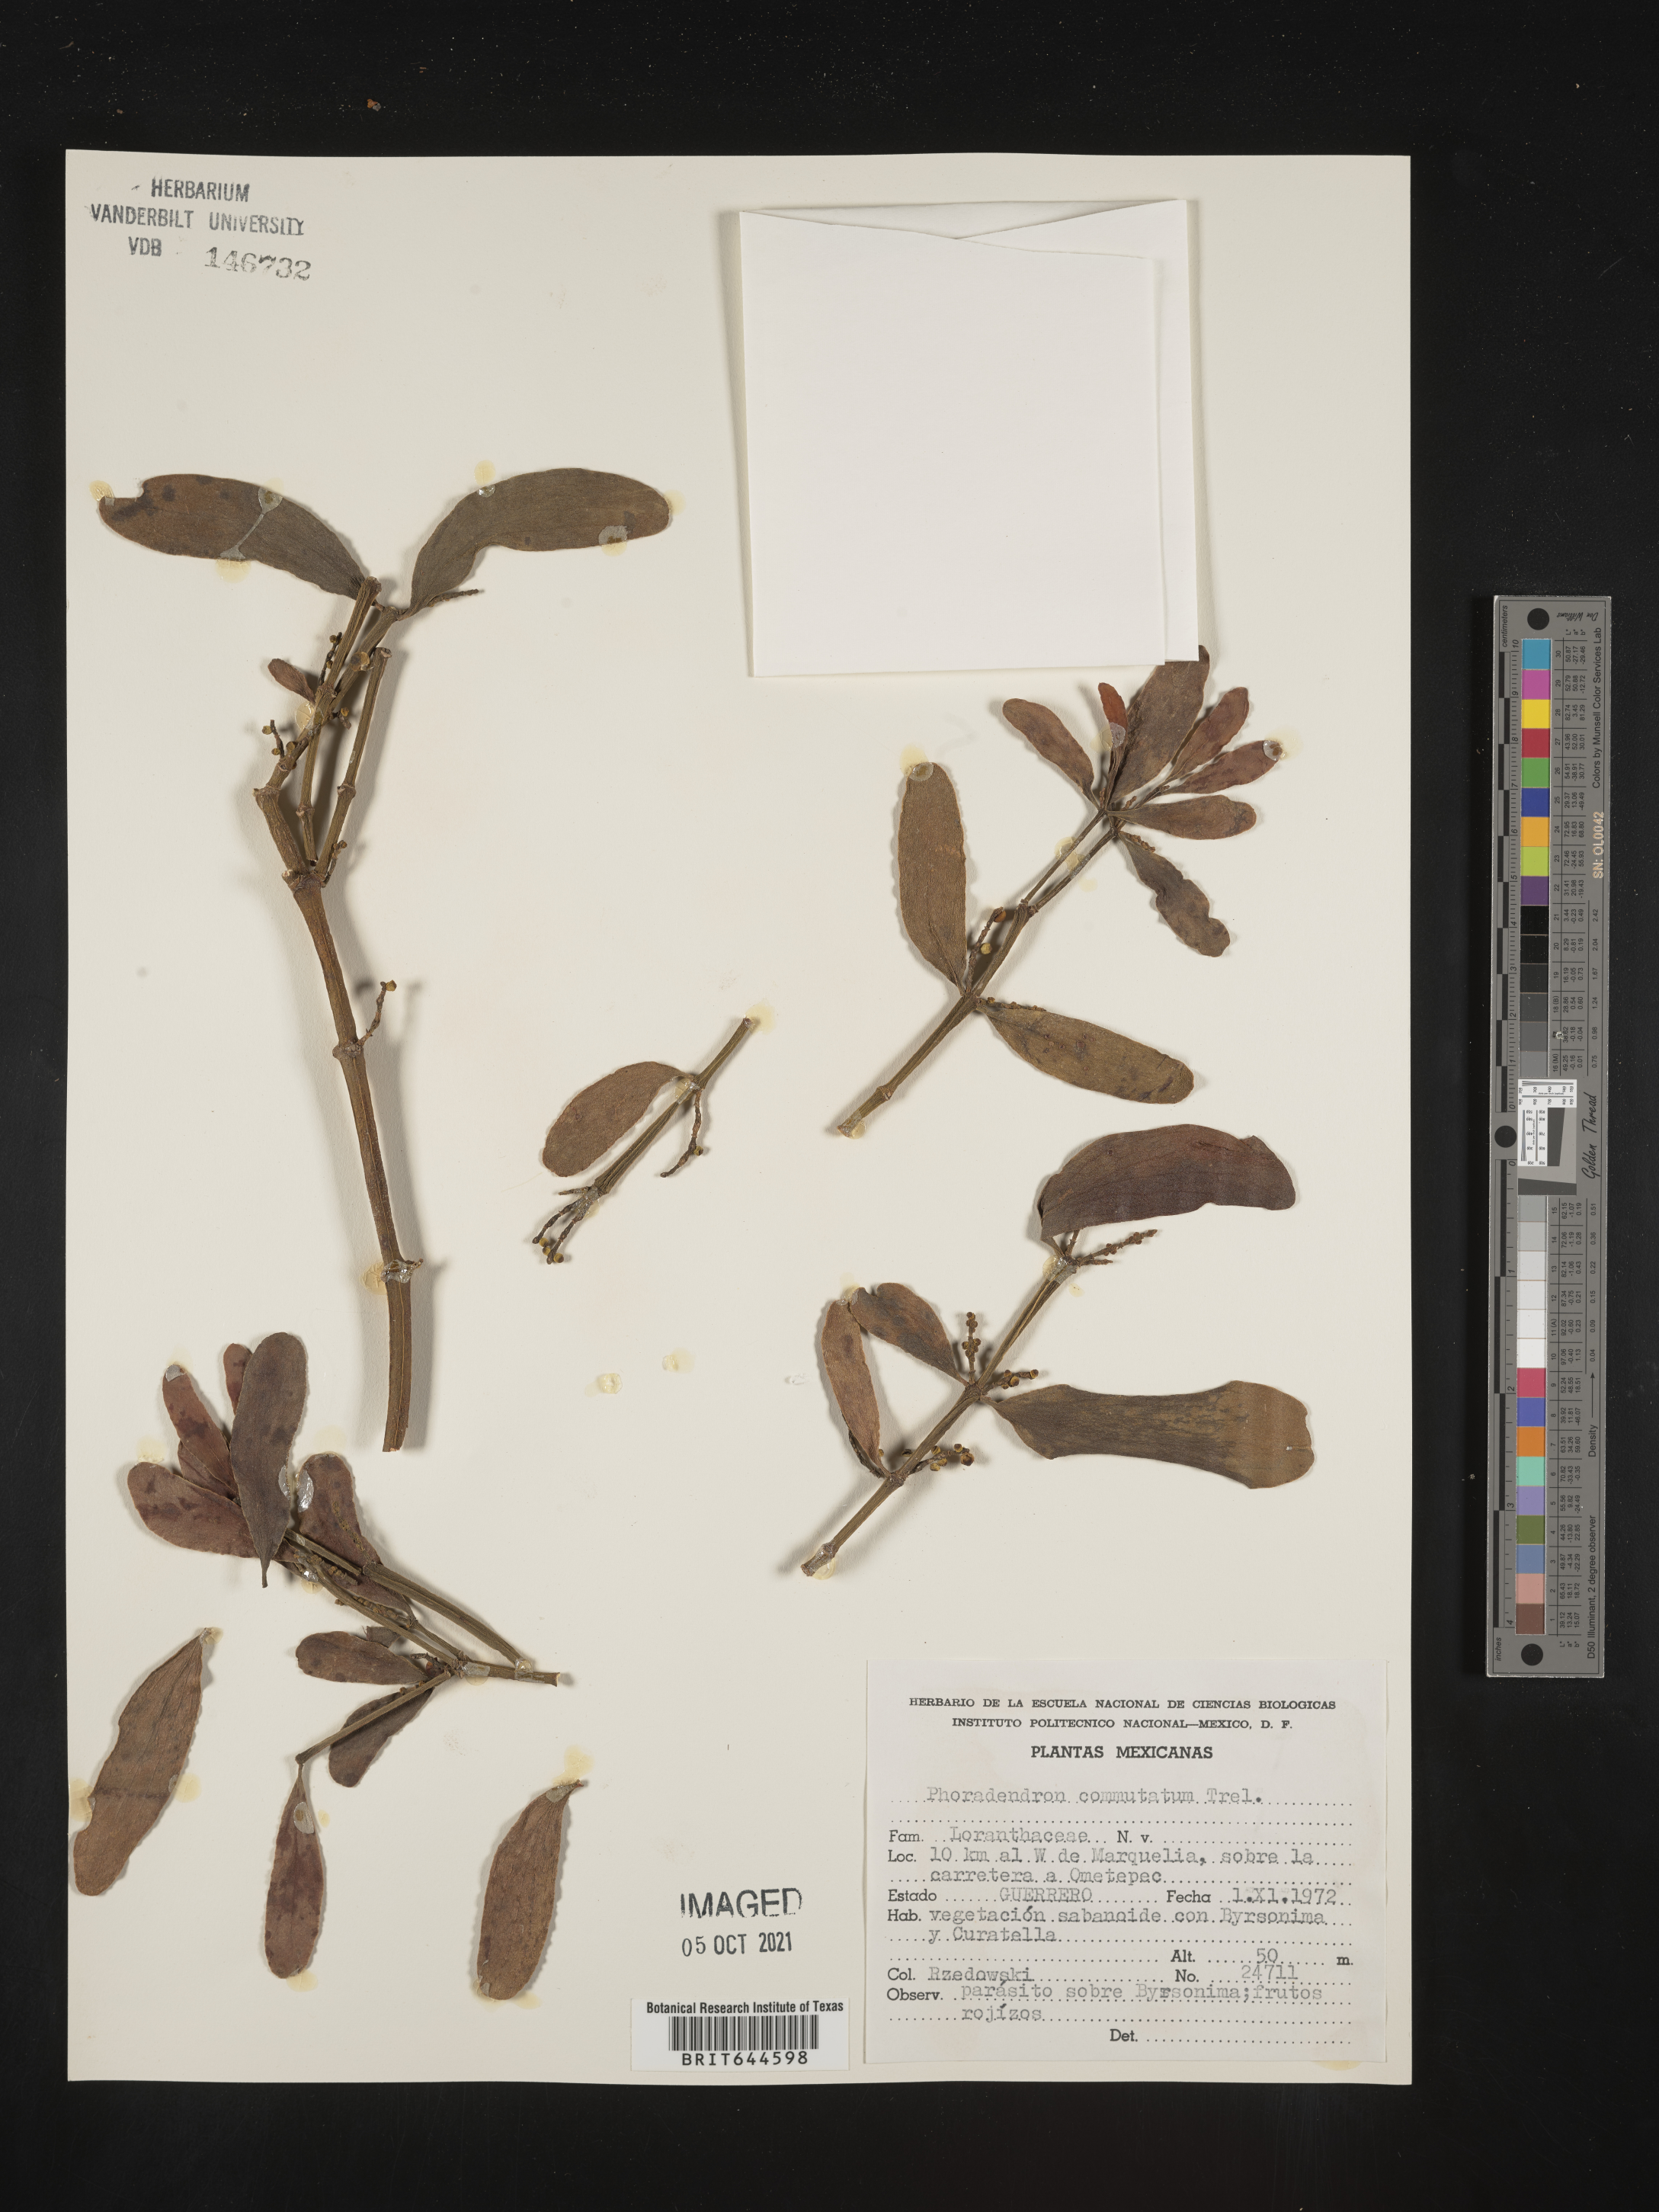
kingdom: Plantae
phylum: Tracheophyta
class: Magnoliopsida
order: Santalales
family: Viscaceae
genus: Phoradendron
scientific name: Phoradendron
